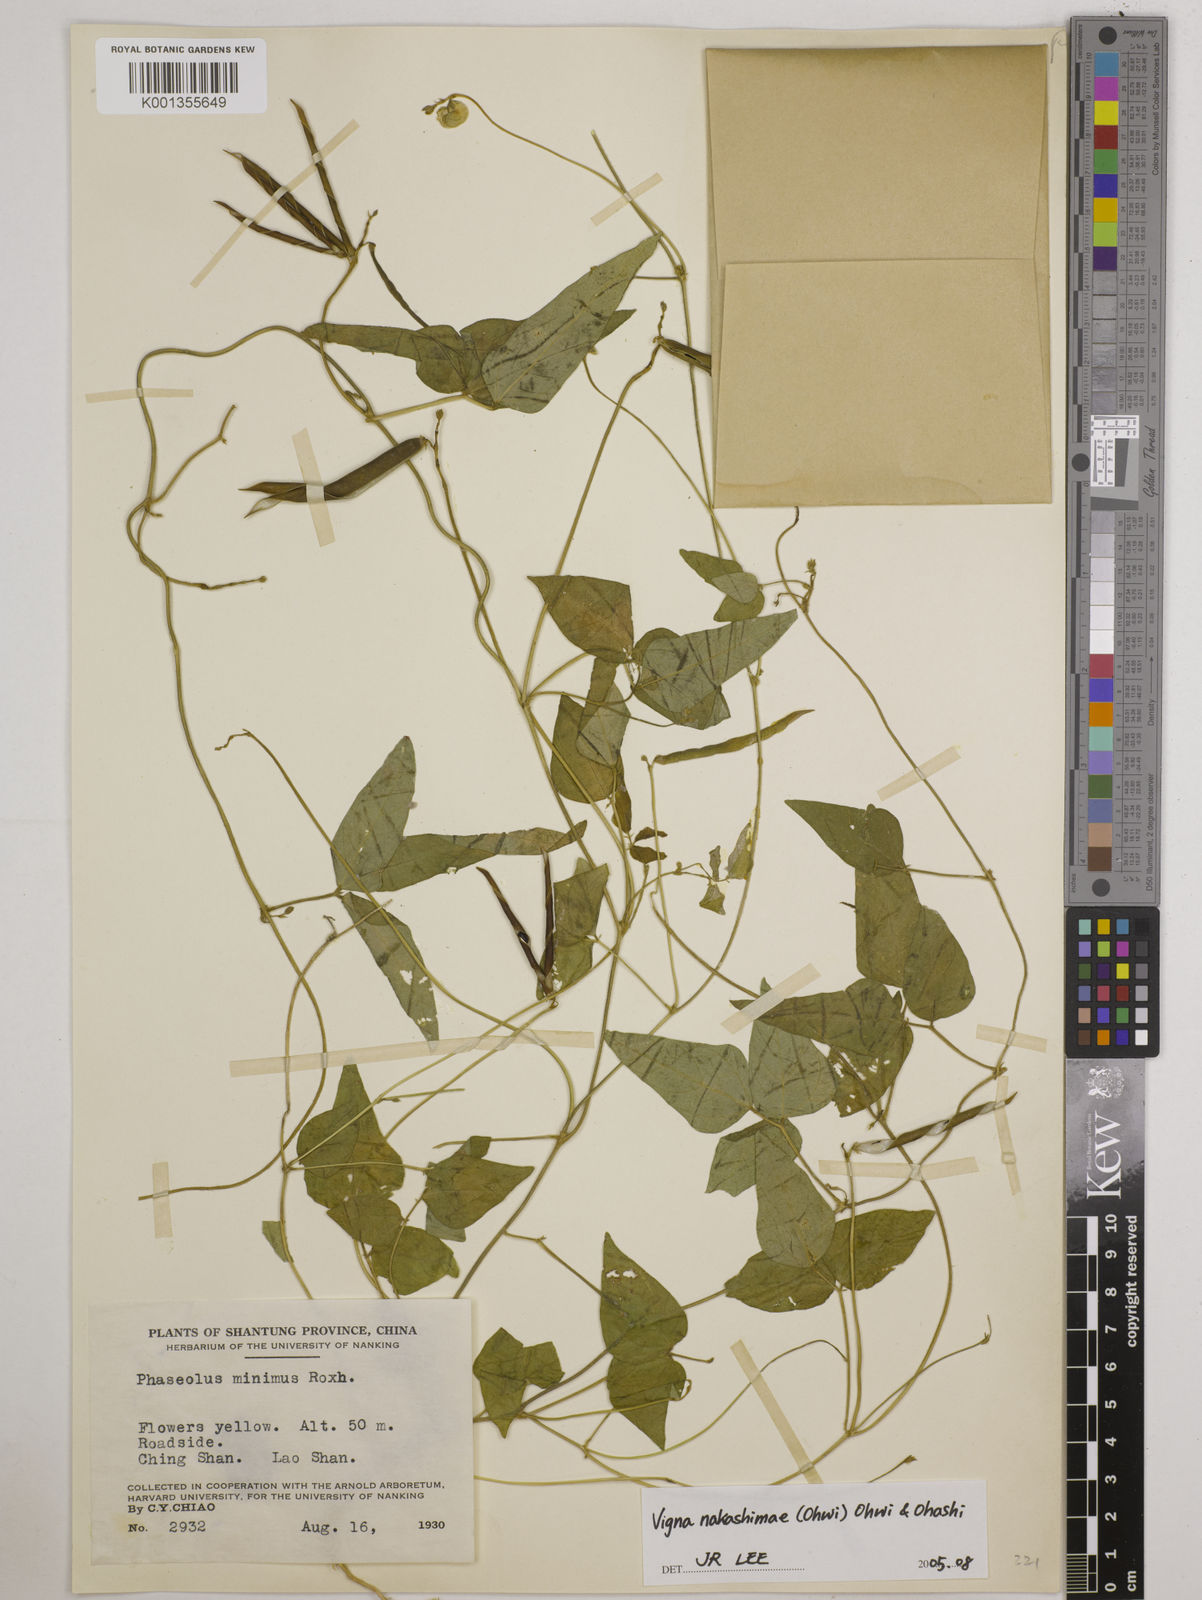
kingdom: Plantae
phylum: Tracheophyta
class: Magnoliopsida
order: Fabales
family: Fabaceae
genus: Vigna
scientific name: Vigna minima
